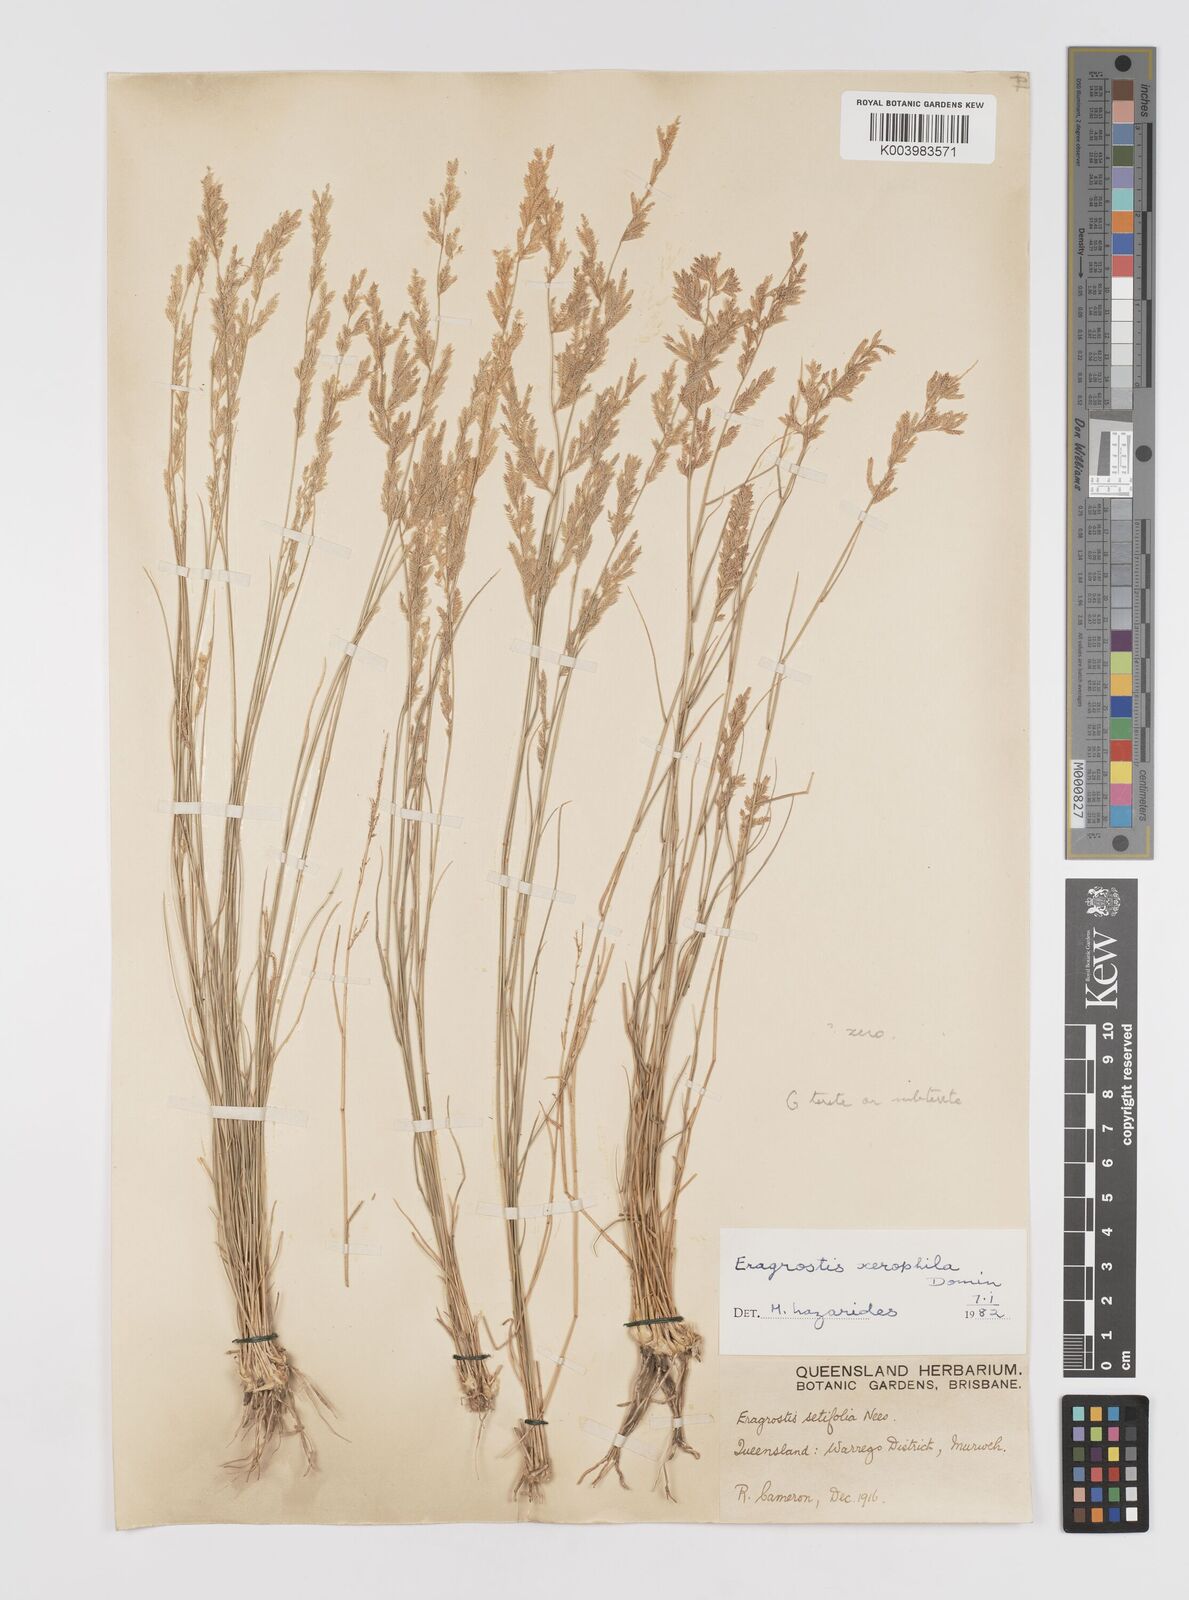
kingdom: Plantae
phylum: Tracheophyta
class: Liliopsida
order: Poales
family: Poaceae
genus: Eragrostis
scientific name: Eragrostis xerophila
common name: Wire wandarrie grass
